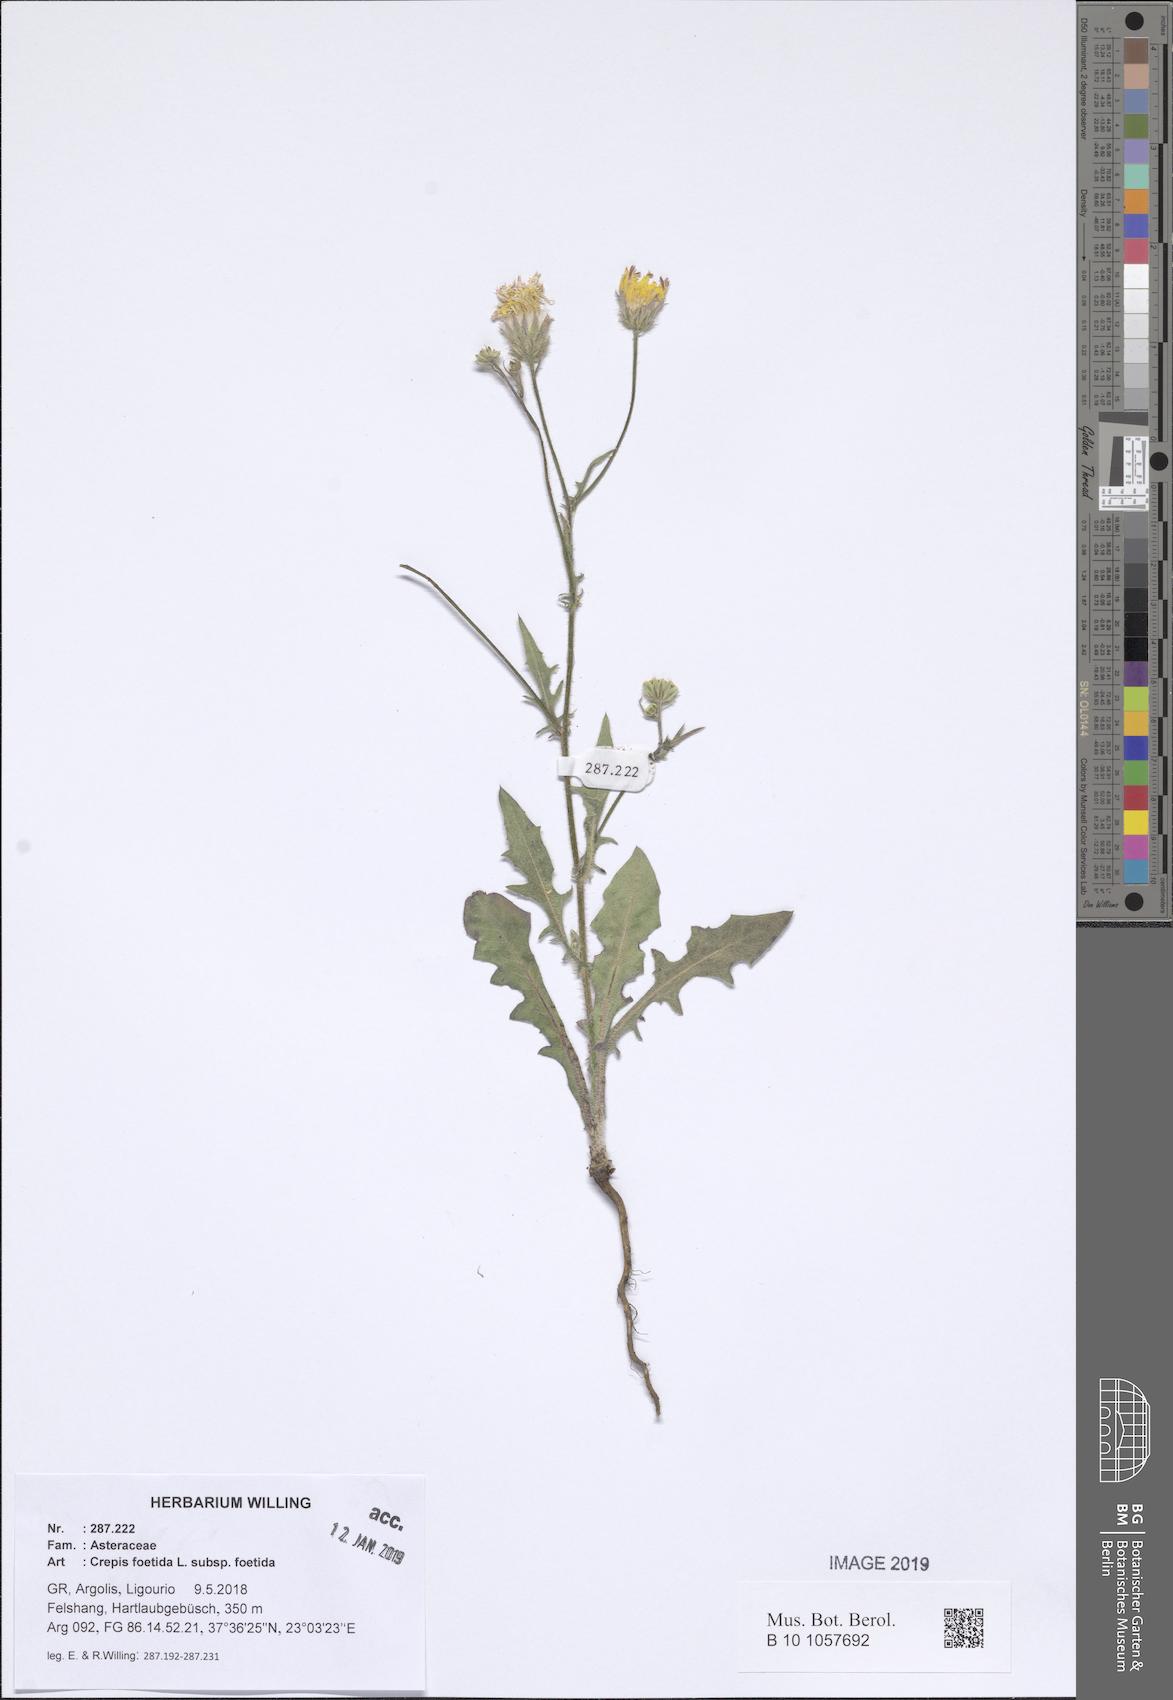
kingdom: Plantae
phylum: Tracheophyta
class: Magnoliopsida
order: Asterales
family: Asteraceae
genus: Crepis
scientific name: Crepis foetida
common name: Stinking hawk's-beard
